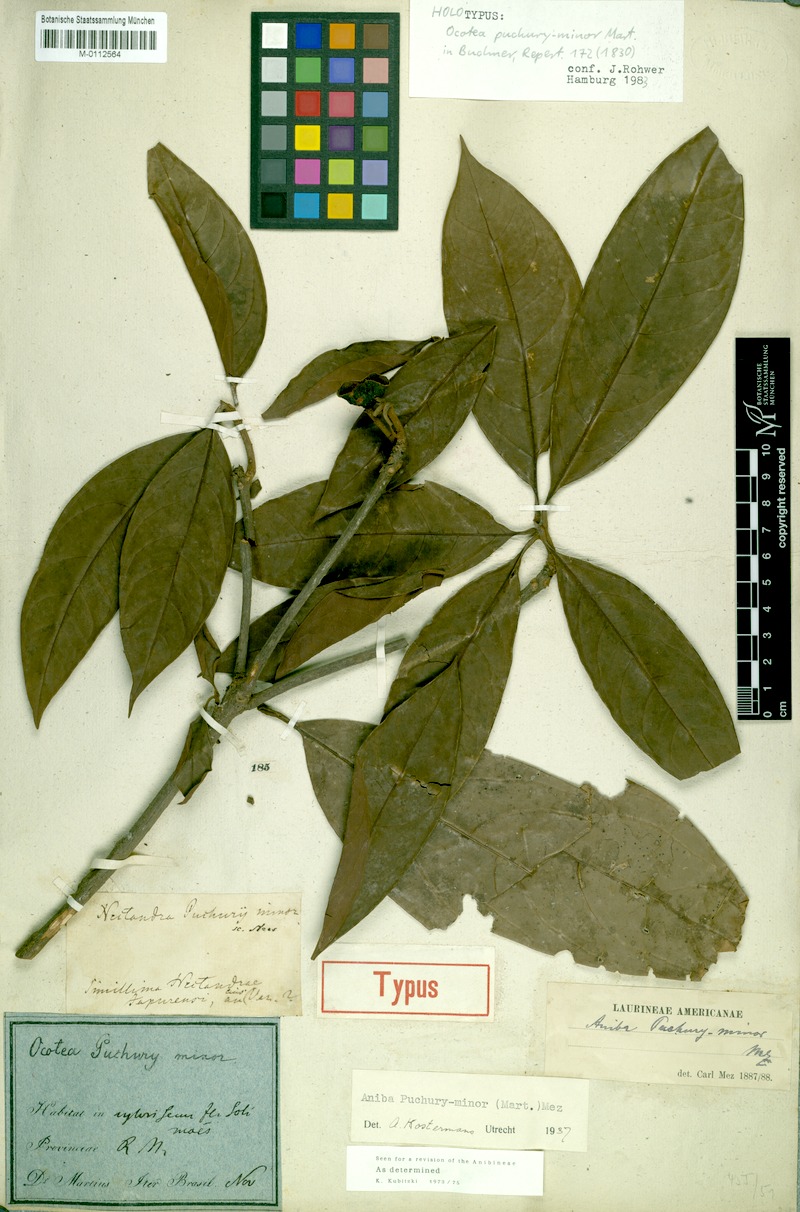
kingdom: Plantae
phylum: Tracheophyta
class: Magnoliopsida
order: Laurales
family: Lauraceae
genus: Aniba
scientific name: Aniba puchury-minor
